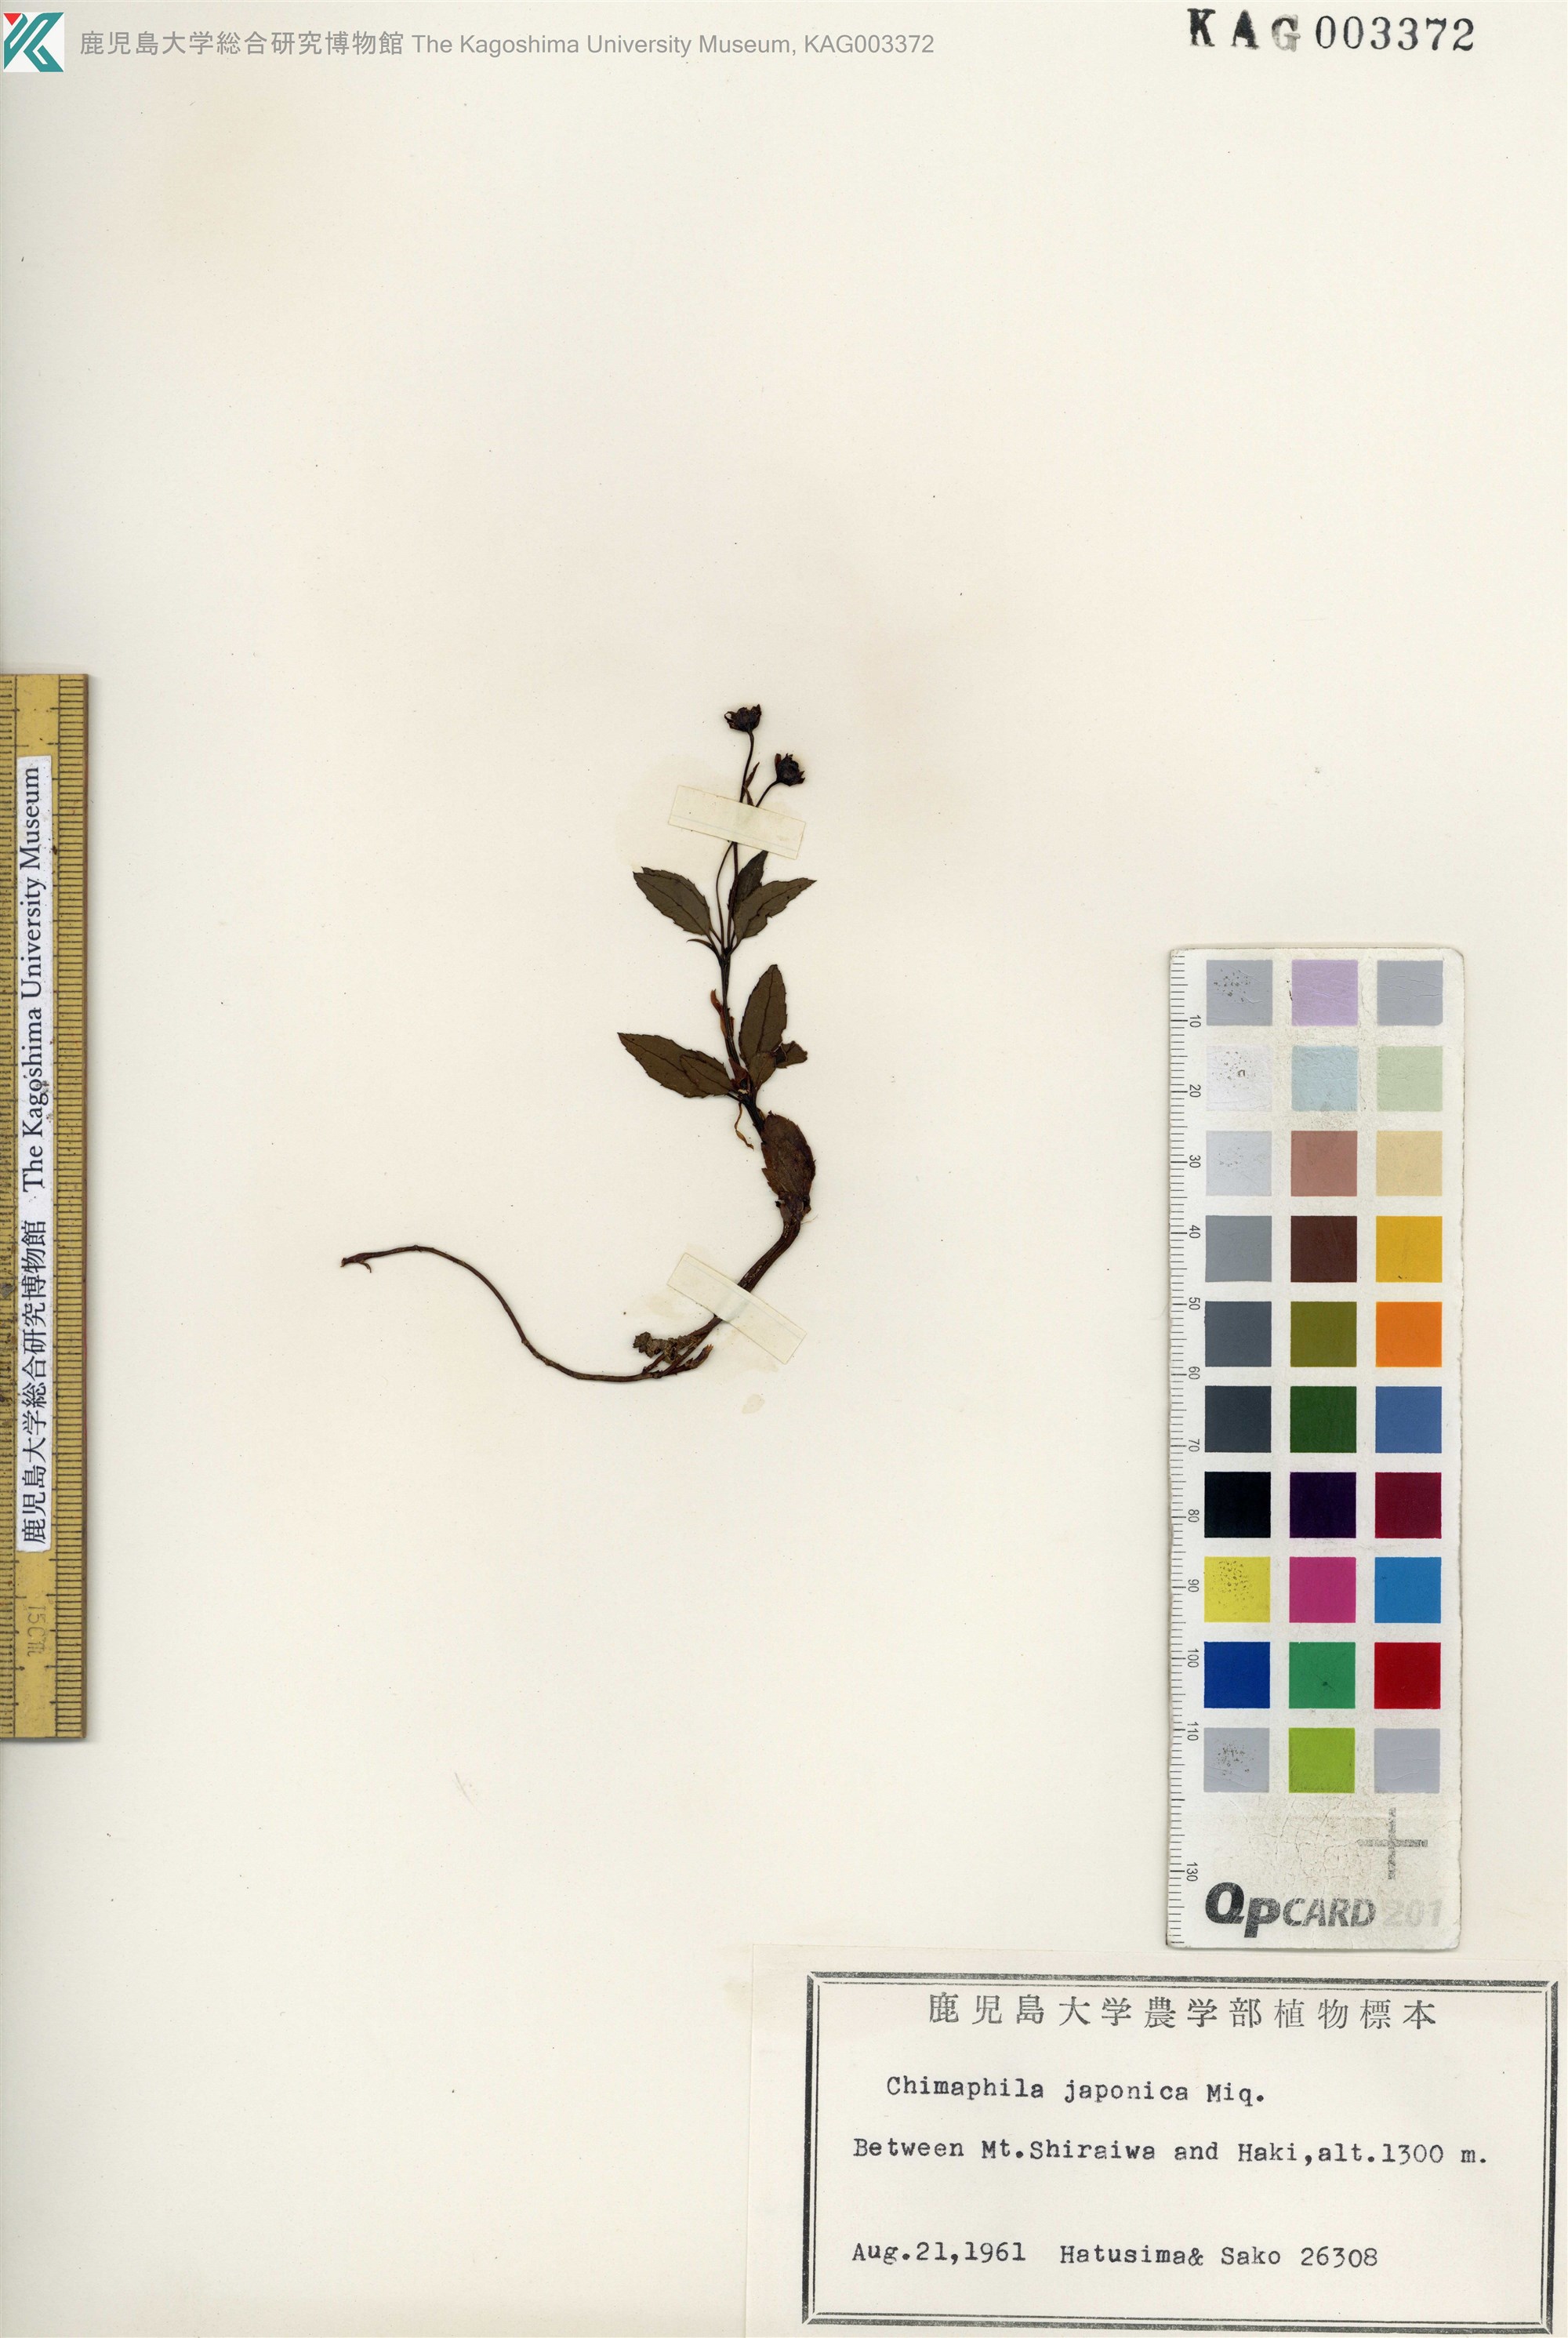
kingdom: Plantae
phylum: Tracheophyta
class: Magnoliopsida
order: Ericales
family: Ericaceae
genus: Chimaphila
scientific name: Chimaphila japonica
